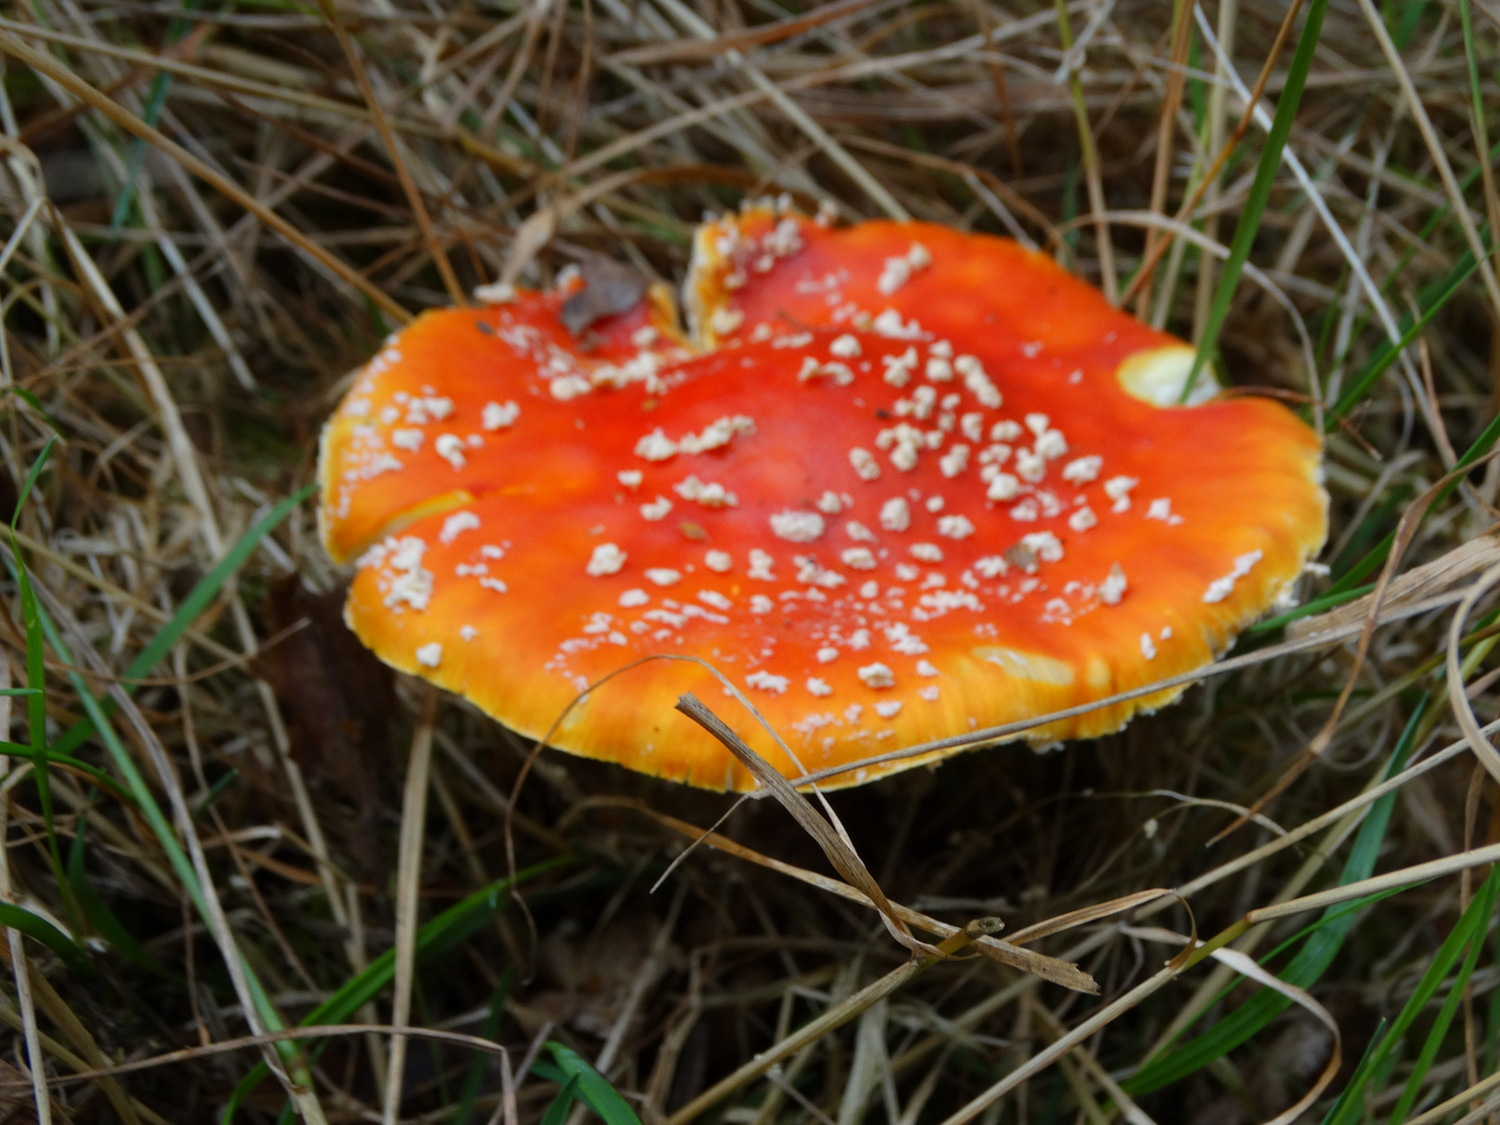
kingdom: Fungi
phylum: Basidiomycota
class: Agaricomycetes
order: Agaricales
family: Amanitaceae
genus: Amanita
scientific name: Amanita muscaria
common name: rød fluesvamp
